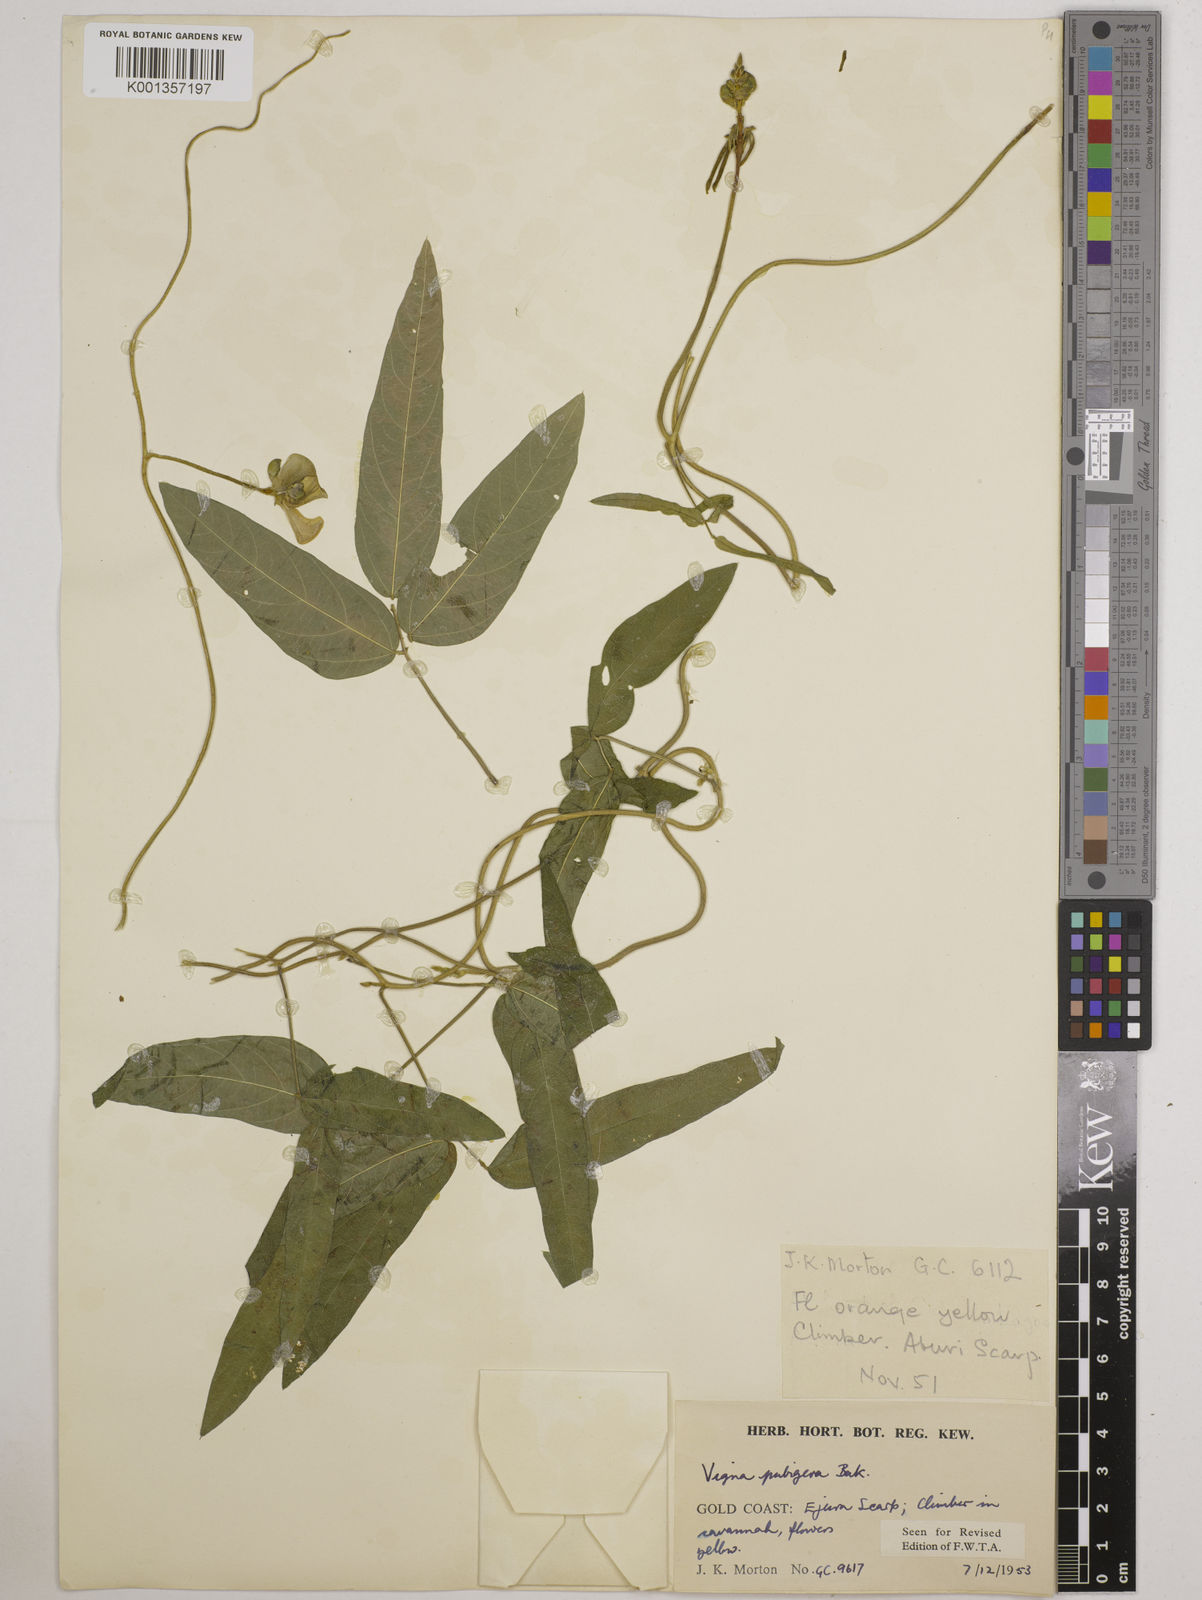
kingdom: Plantae
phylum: Tracheophyta
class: Magnoliopsida
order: Fabales
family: Fabaceae
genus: Vigna
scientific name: Vigna ambacensis
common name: Tsarkiyan zomo
